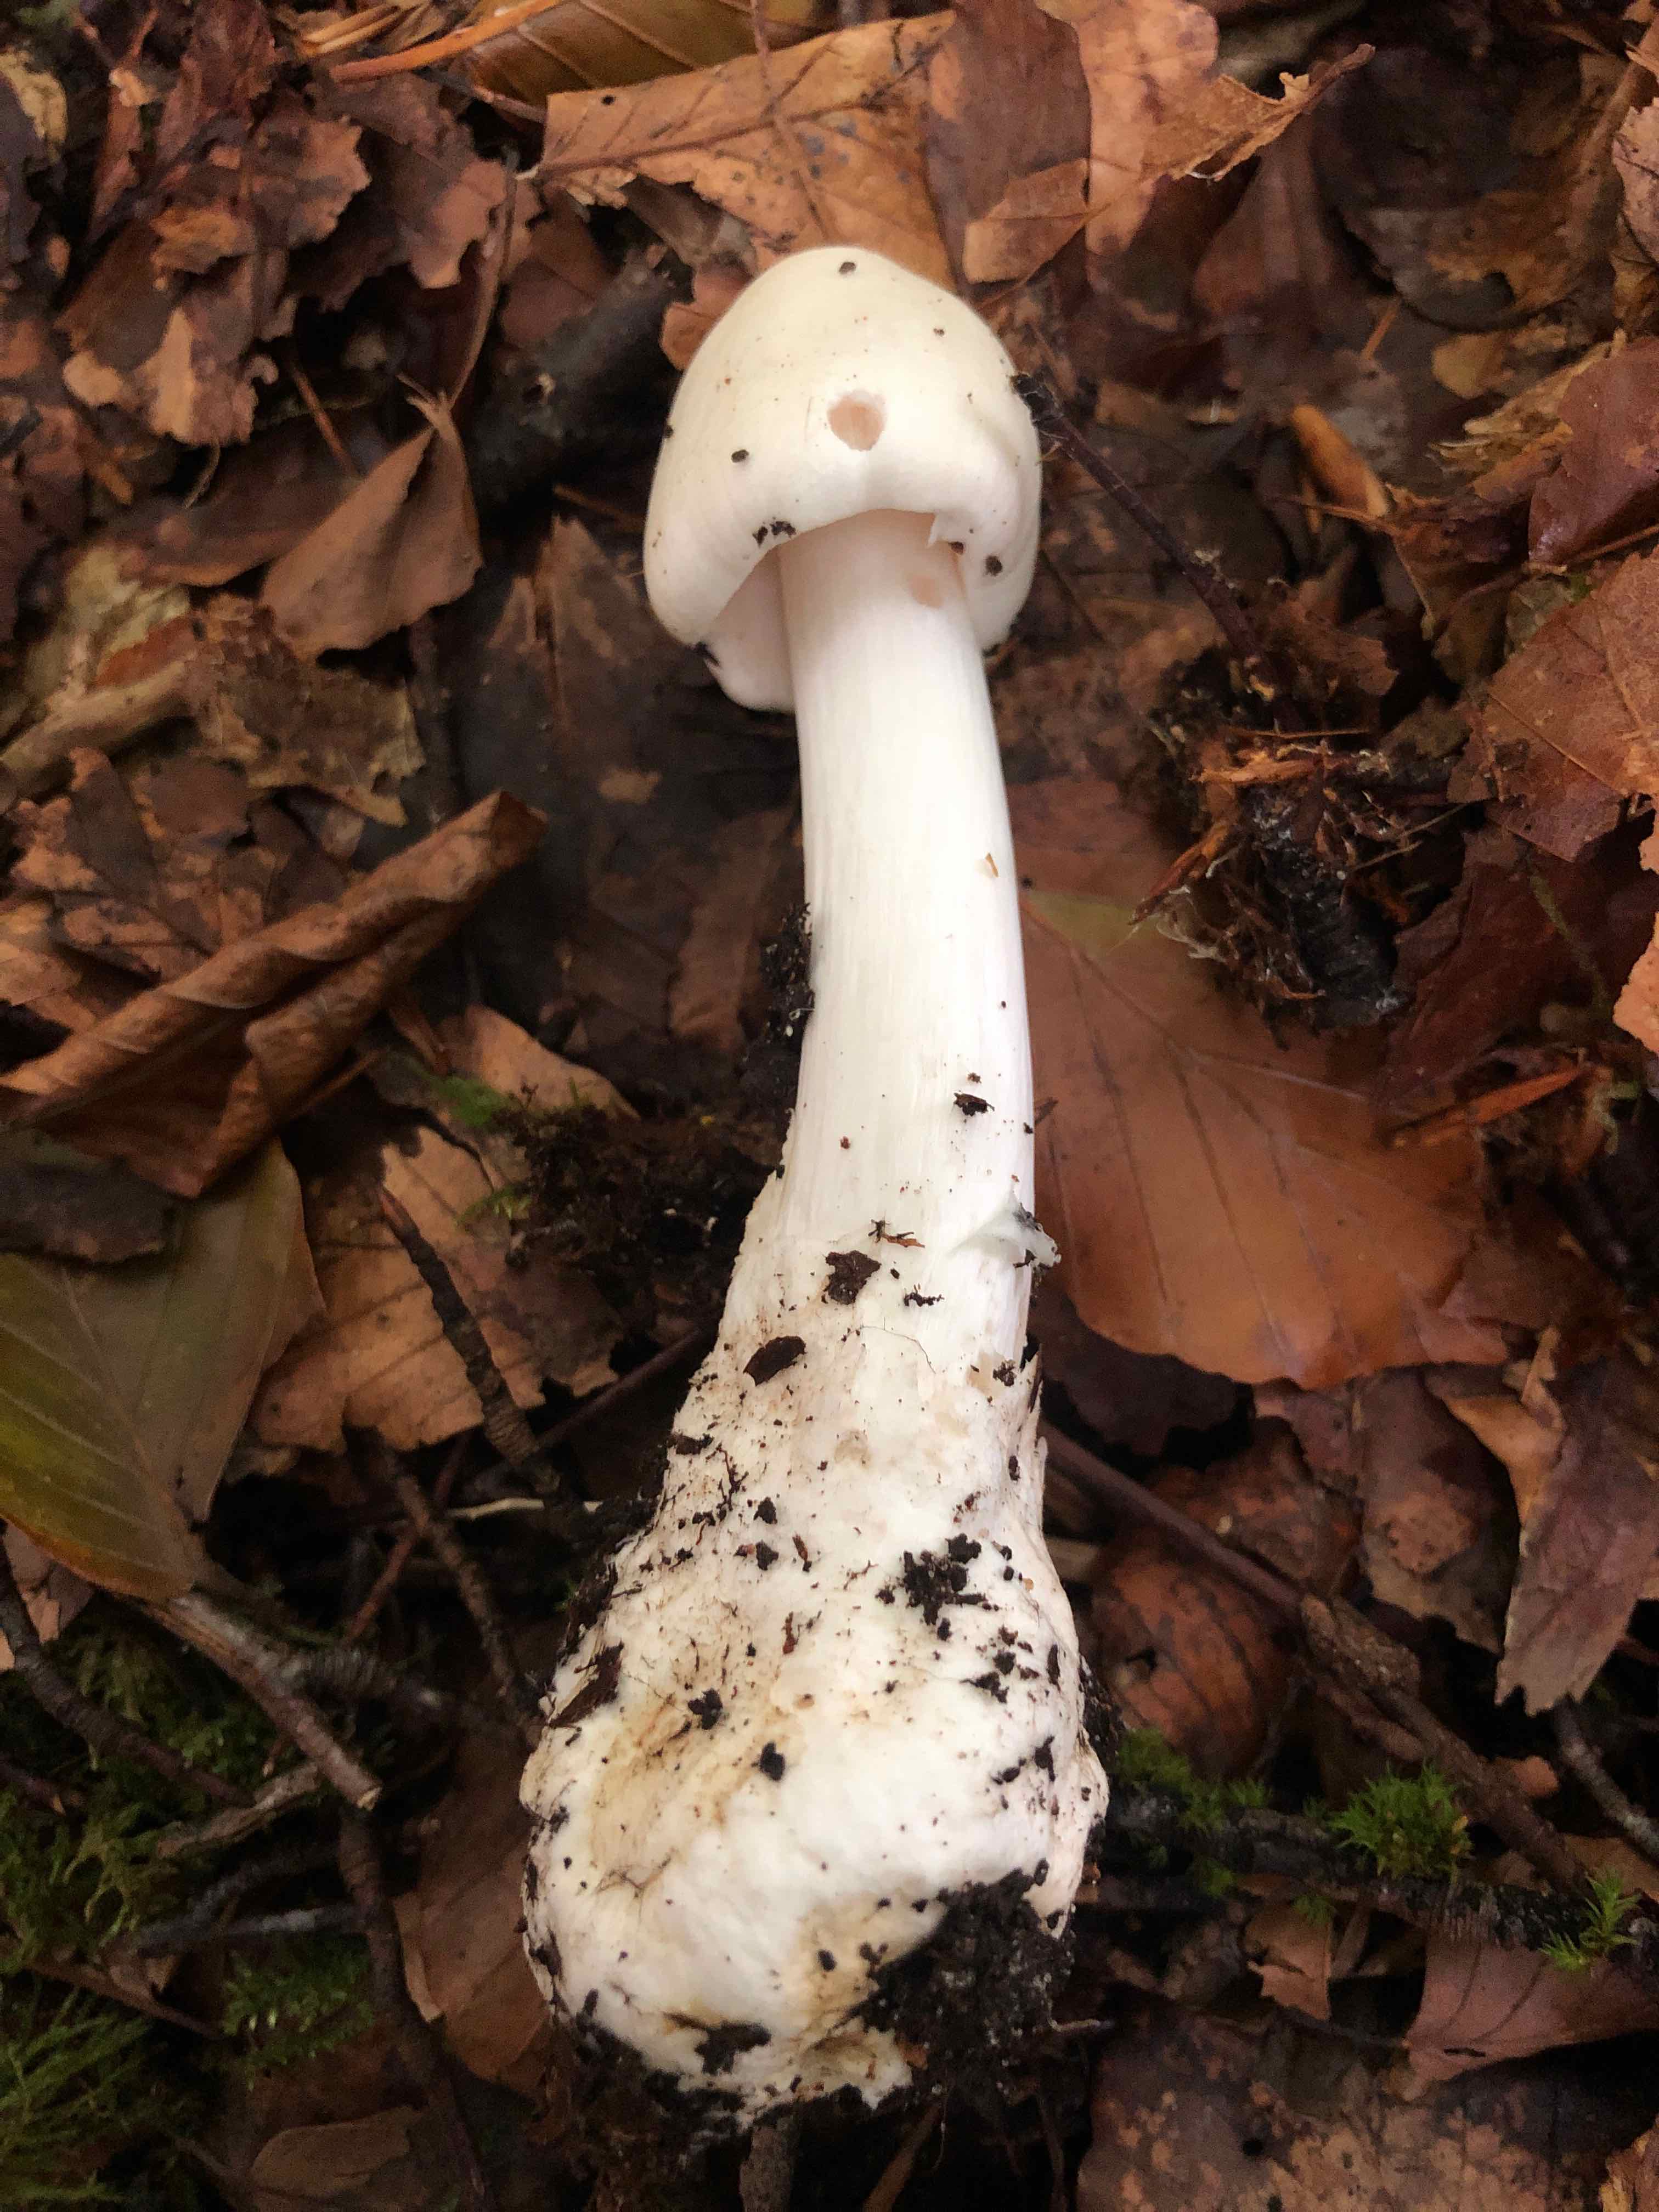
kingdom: Fungi
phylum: Basidiomycota
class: Agaricomycetes
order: Agaricales
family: Amanitaceae
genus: Amanita
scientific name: Amanita virosa
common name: snehvid fluesvamp
